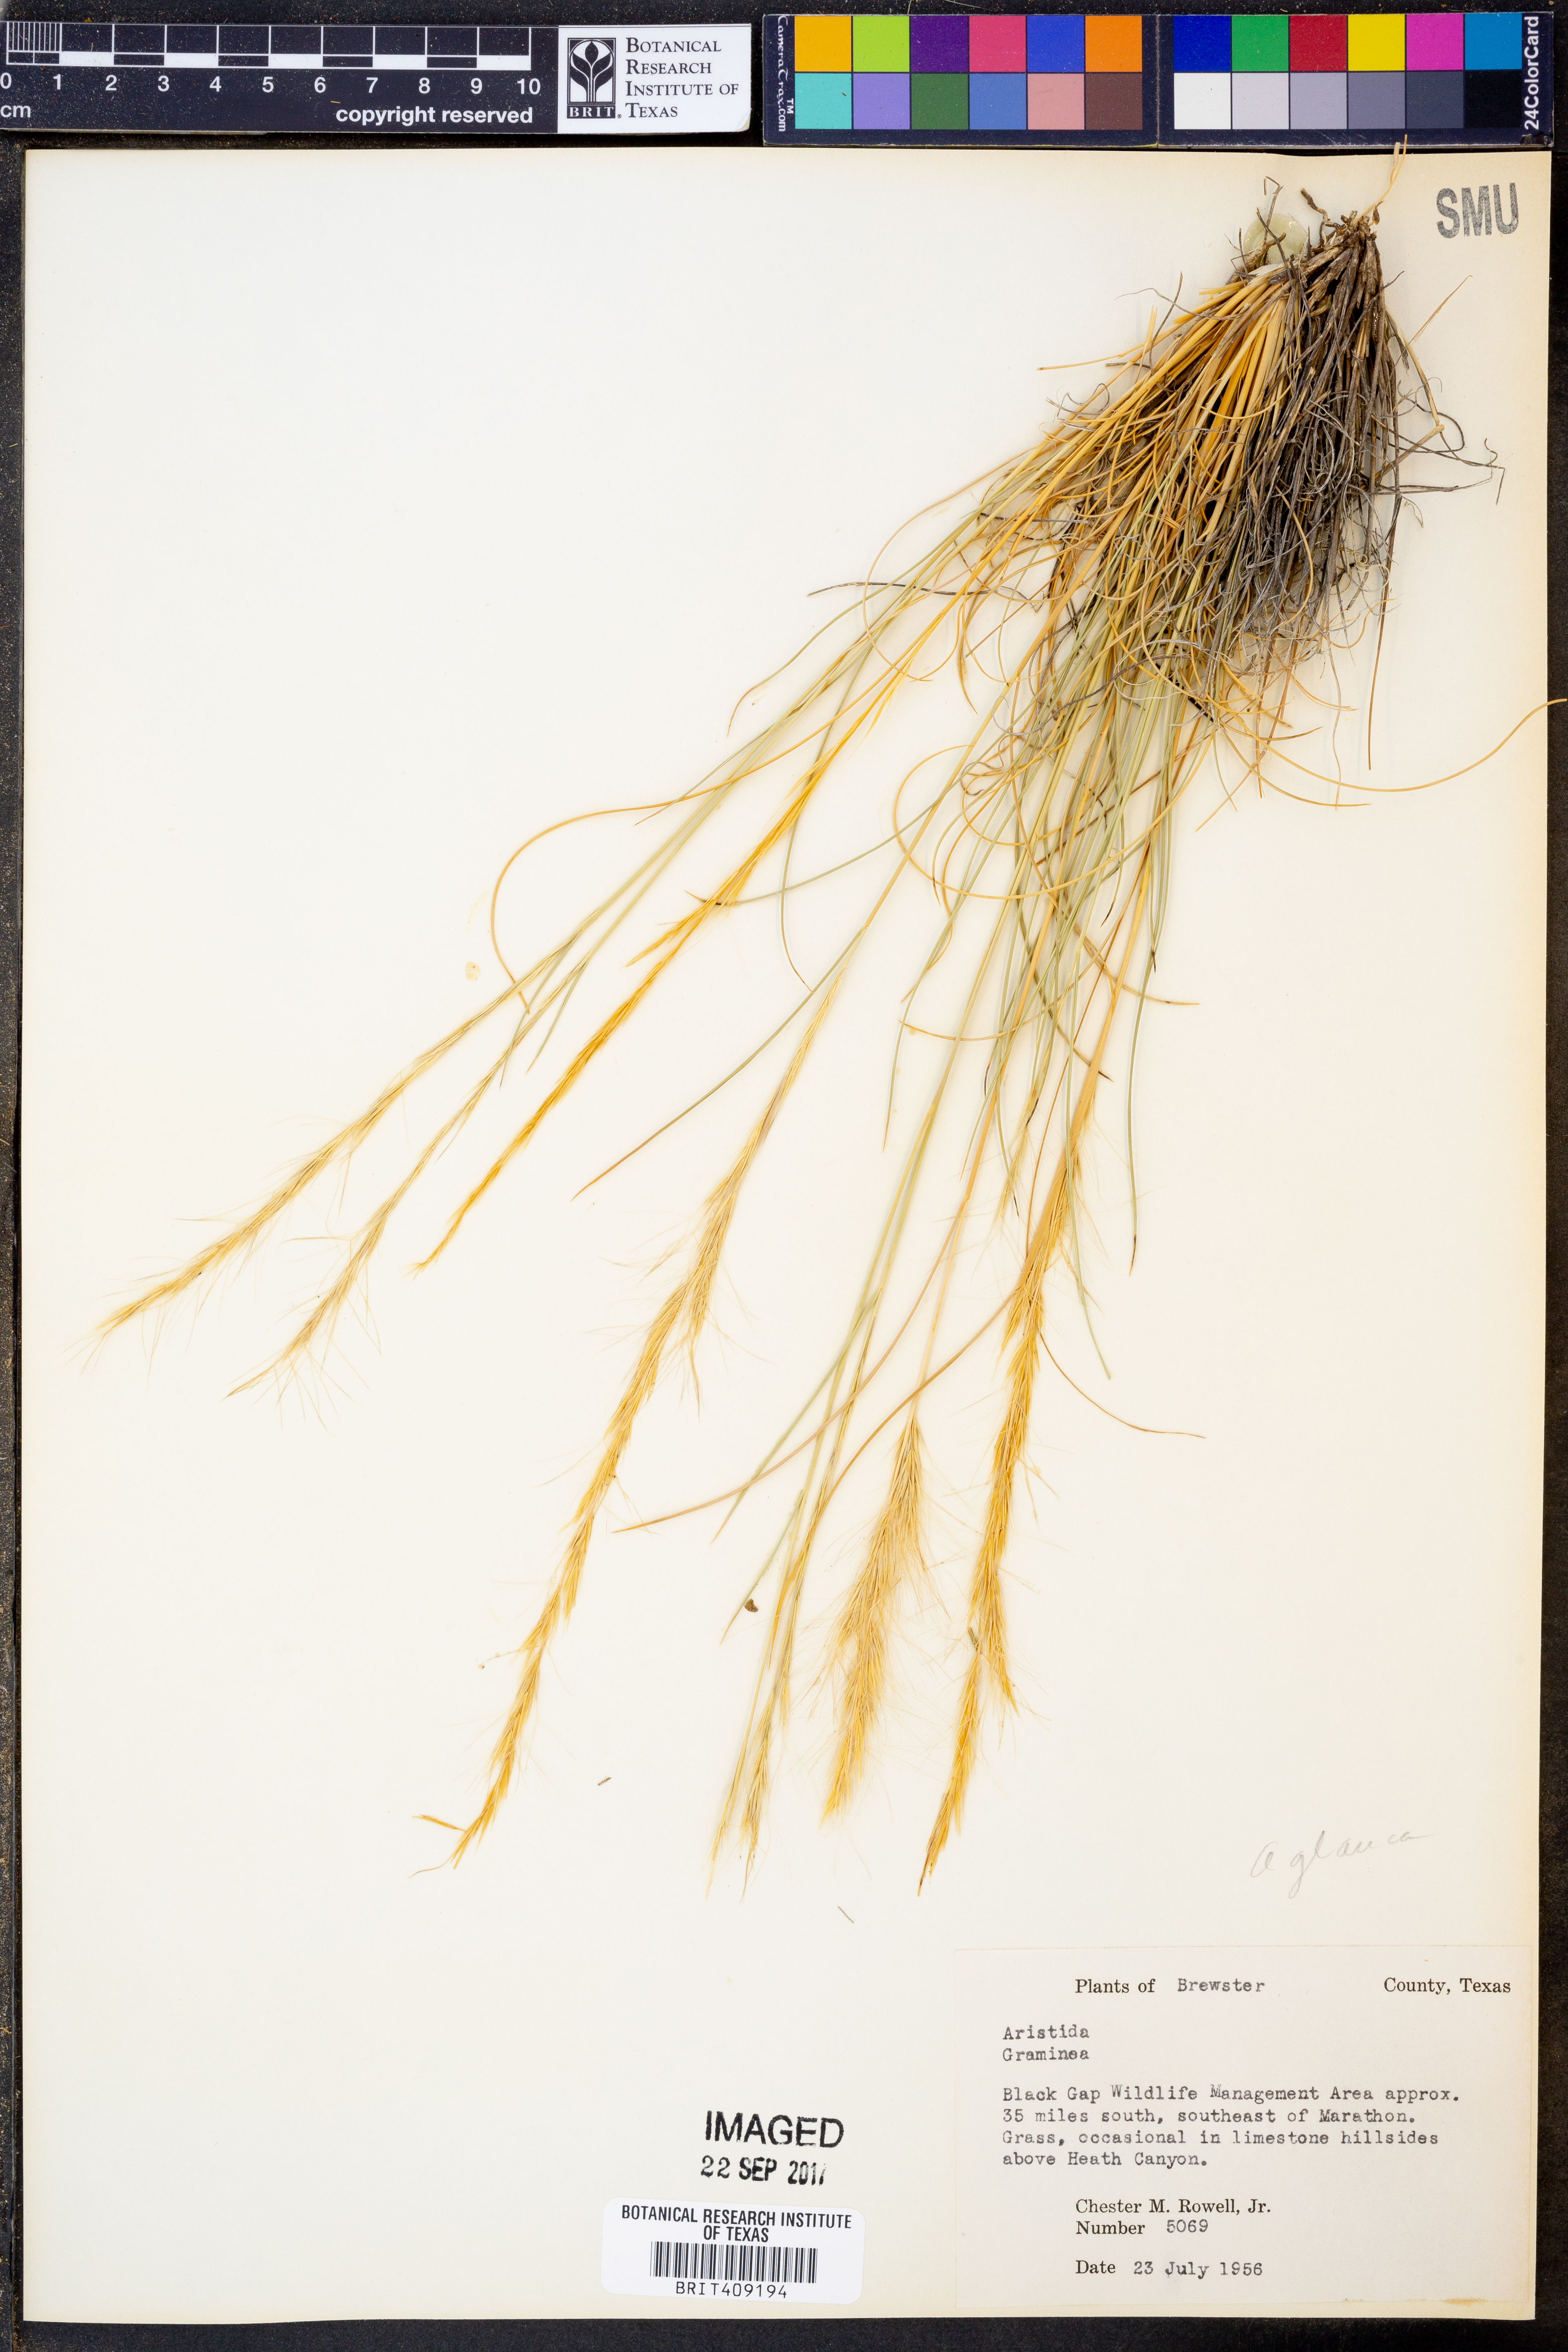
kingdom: Plantae
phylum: Tracheophyta
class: Liliopsida
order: Poales
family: Poaceae
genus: Aristida
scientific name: Aristida
